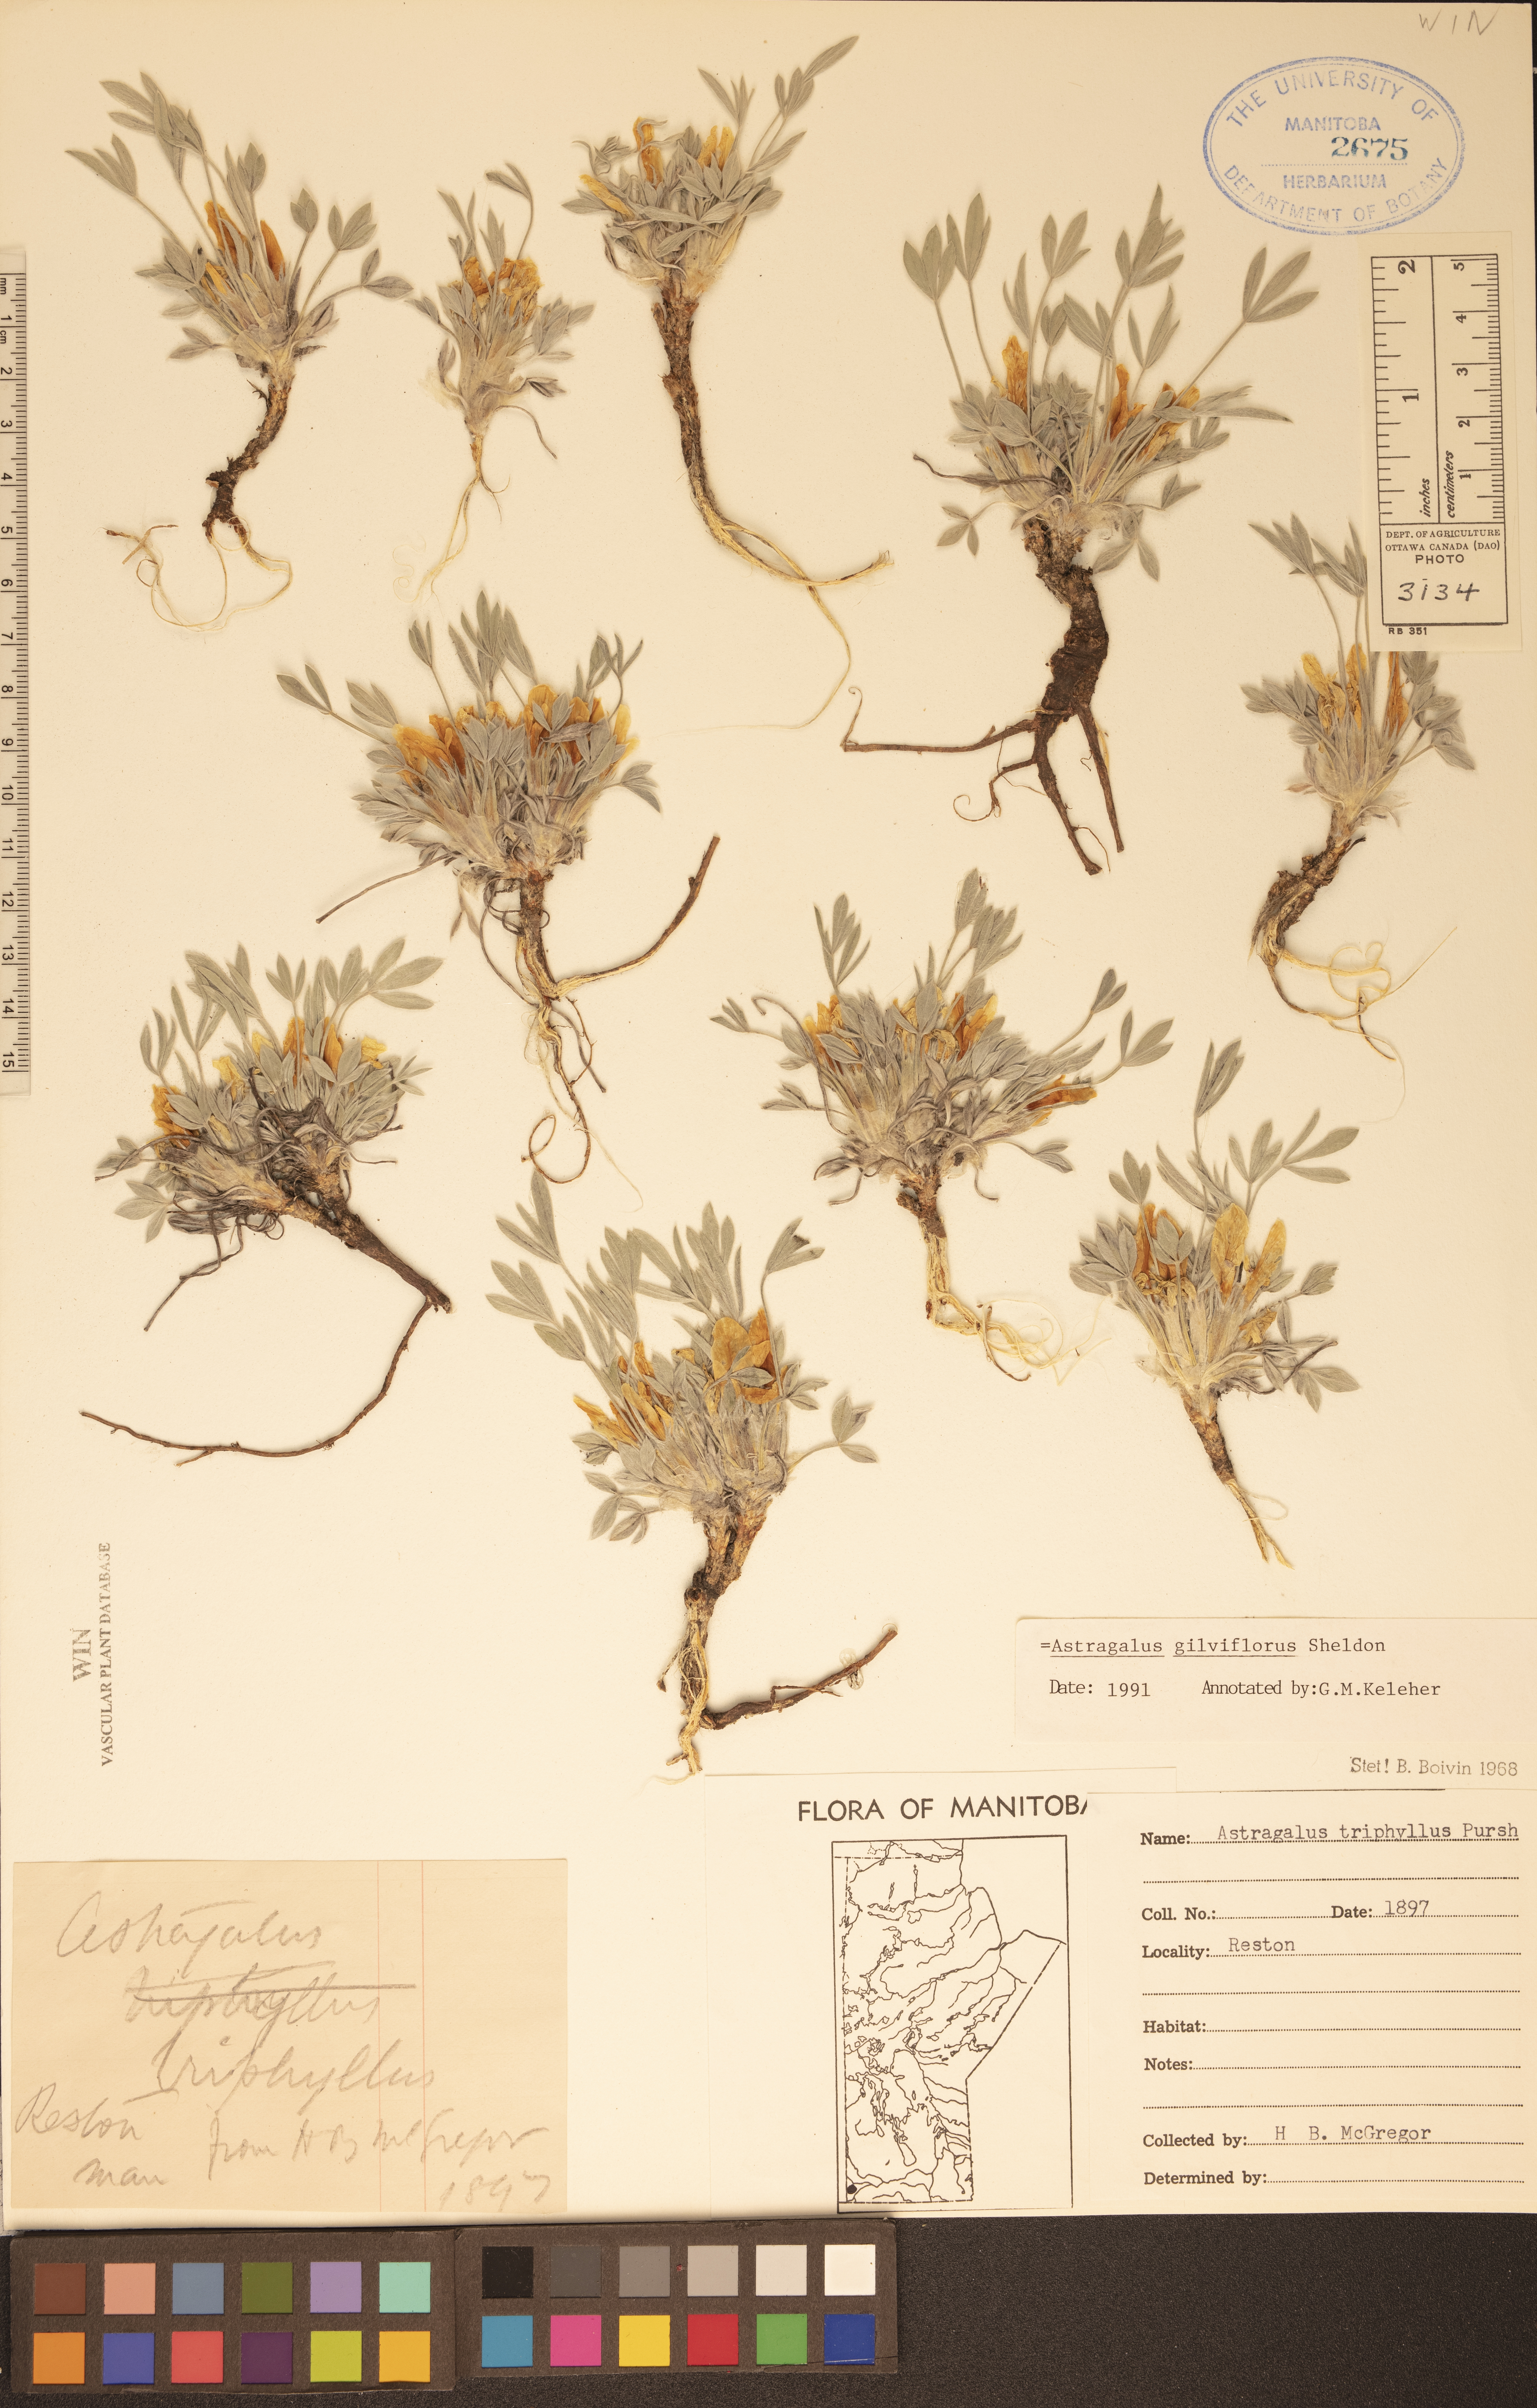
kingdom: Plantae
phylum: Tracheophyta
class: Magnoliopsida
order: Fabales
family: Fabaceae
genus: Astragalus
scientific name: Astragalus gilviflorus
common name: Cushion milk-vetch
